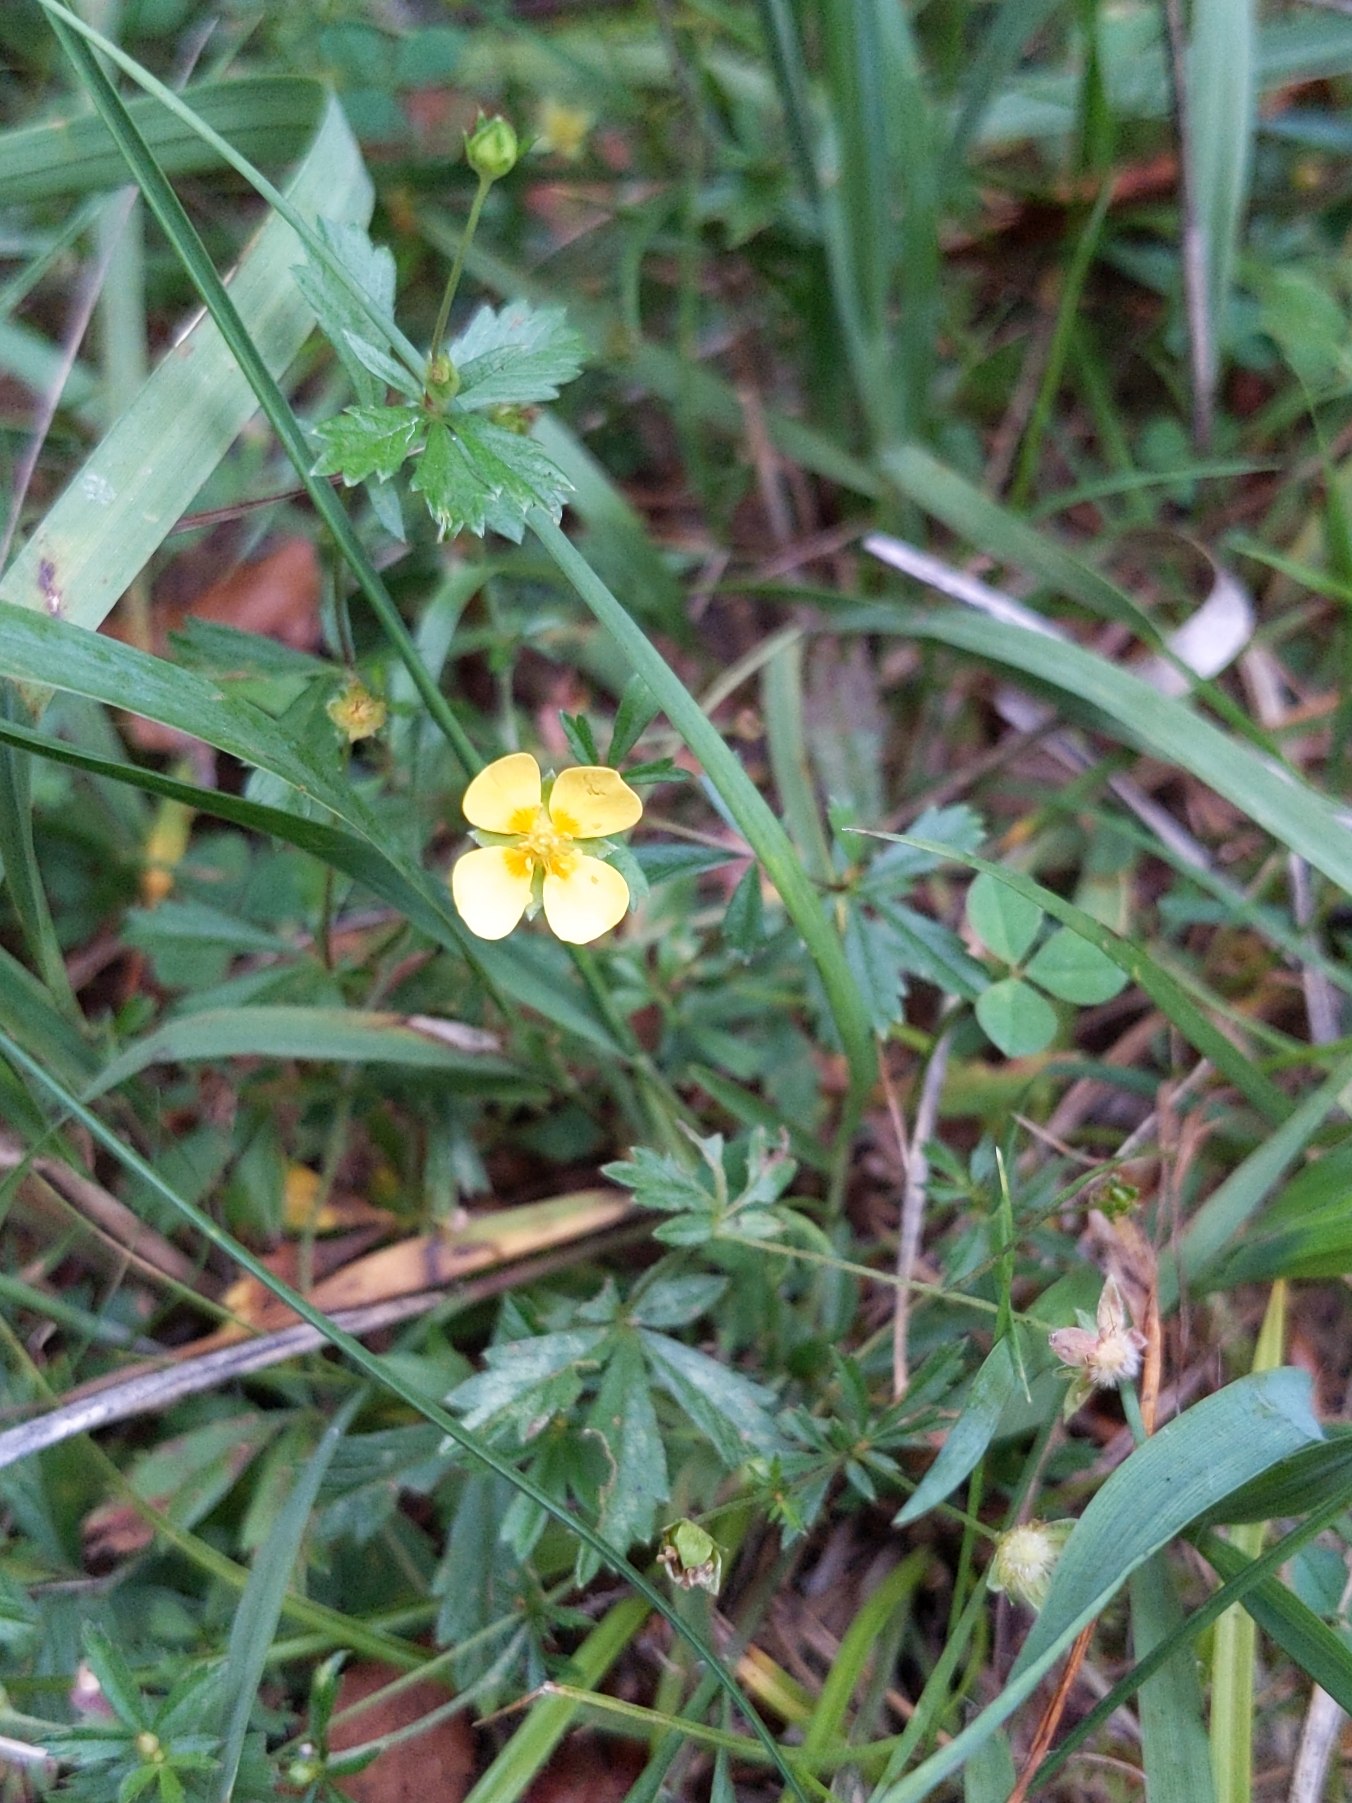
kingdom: Plantae
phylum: Tracheophyta
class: Magnoliopsida
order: Rosales
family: Rosaceae
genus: Potentilla
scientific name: Potentilla erecta
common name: Tormentil
